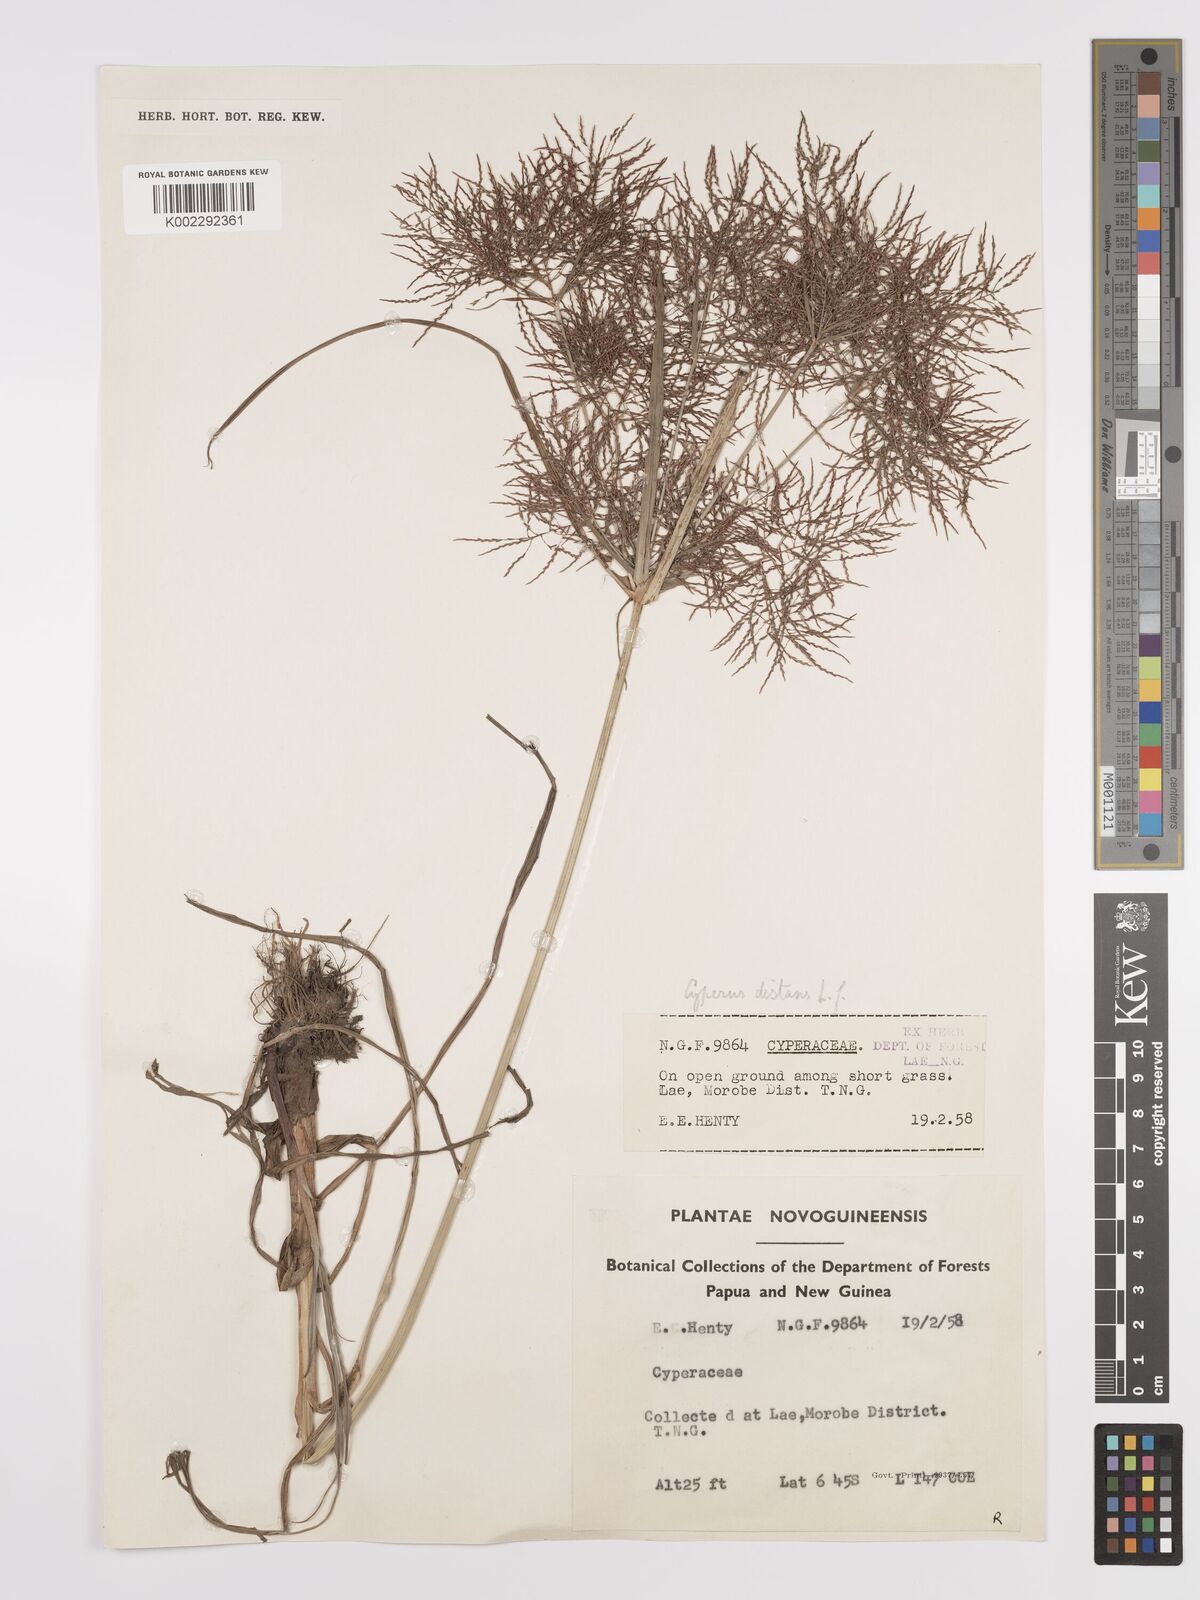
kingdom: Plantae
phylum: Tracheophyta
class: Liliopsida
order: Poales
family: Cyperaceae
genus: Cyperus
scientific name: Cyperus distans
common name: Slender cyperus
